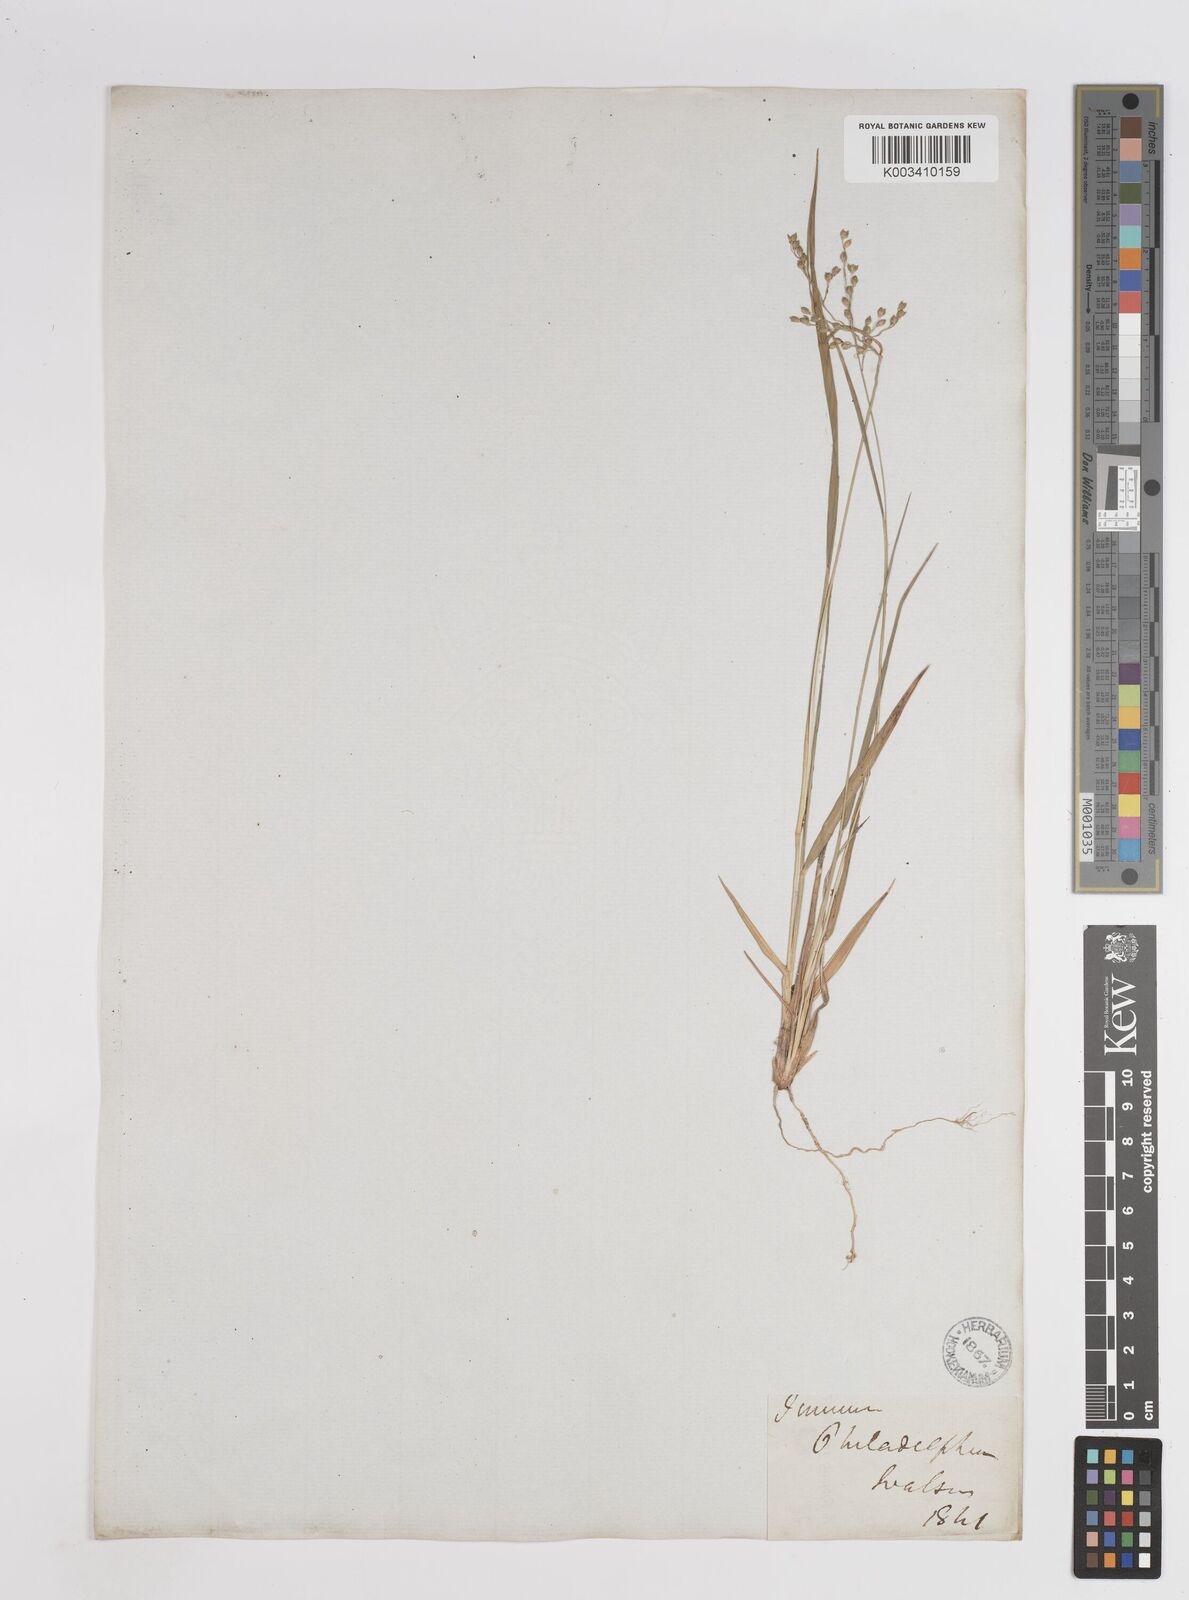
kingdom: Plantae
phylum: Tracheophyta
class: Liliopsida
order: Poales
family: Poaceae
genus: Dichanthelium
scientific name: Dichanthelium depauperatum
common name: Depauperate panicgrass
